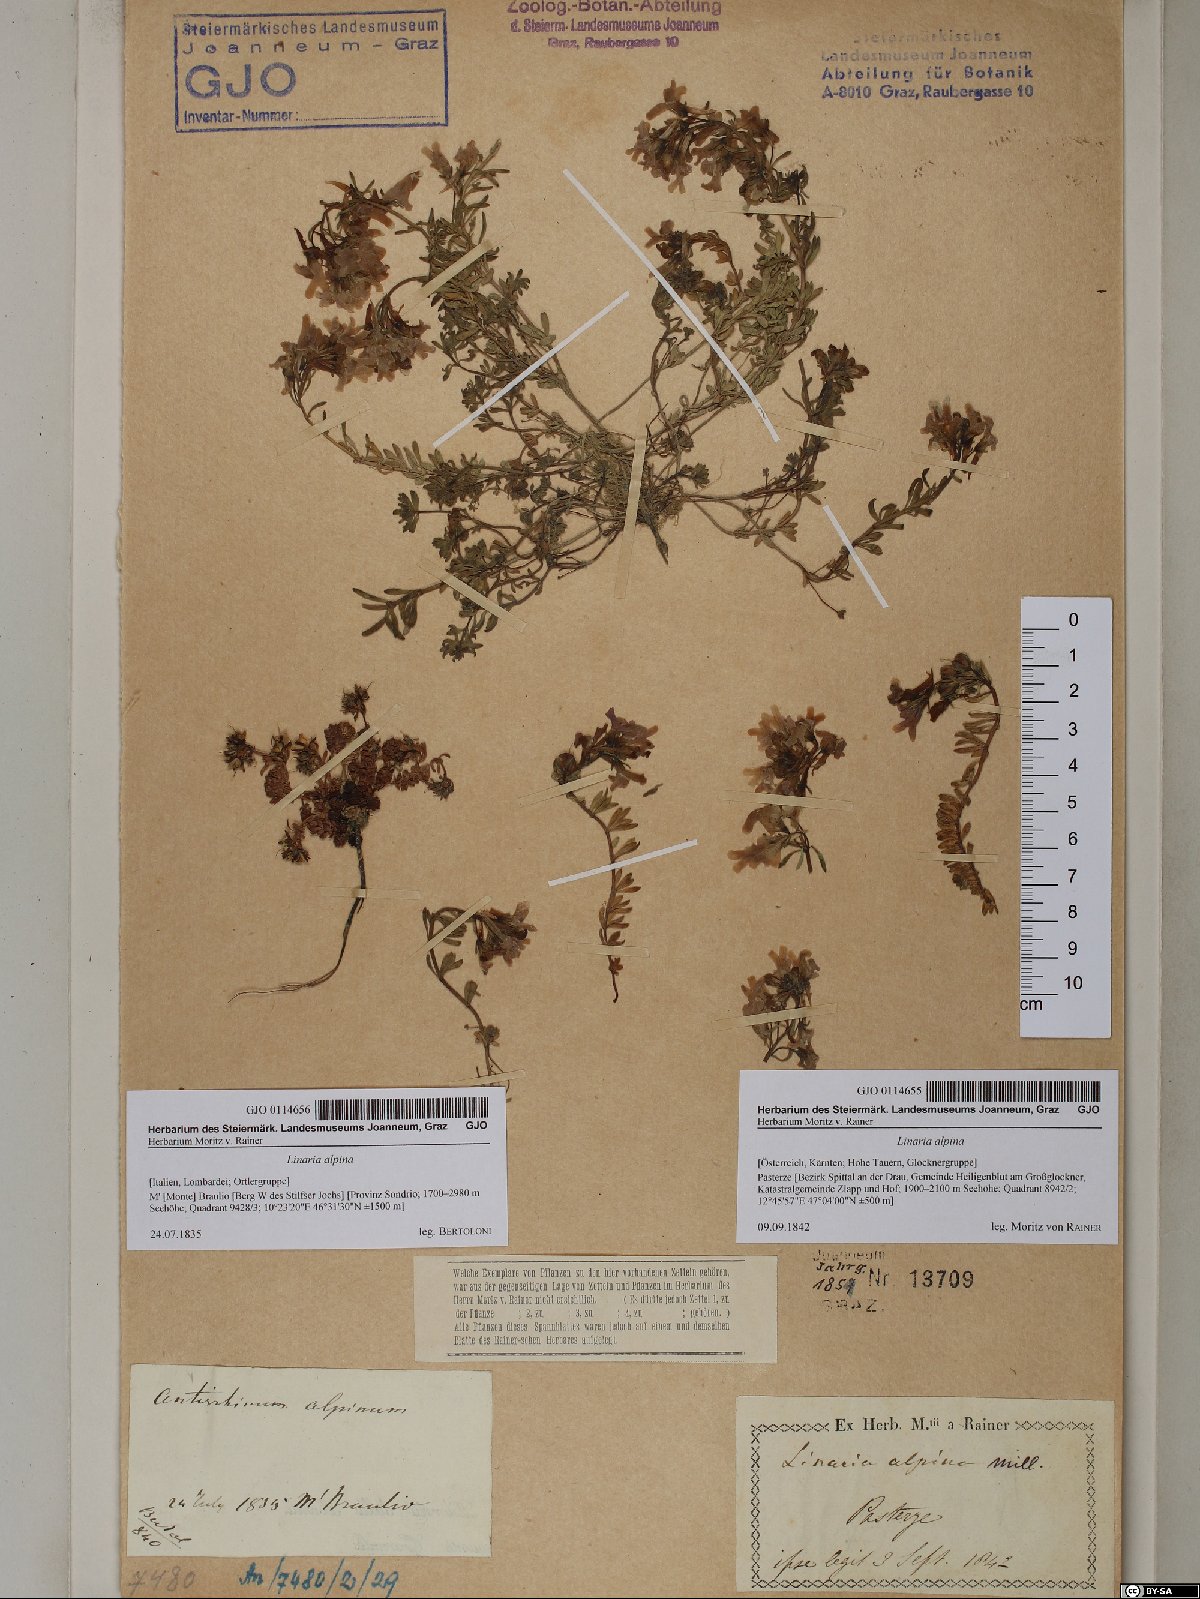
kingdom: Plantae
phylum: Tracheophyta
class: Magnoliopsida
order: Lamiales
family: Plantaginaceae
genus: Linaria
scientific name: Linaria alpina
